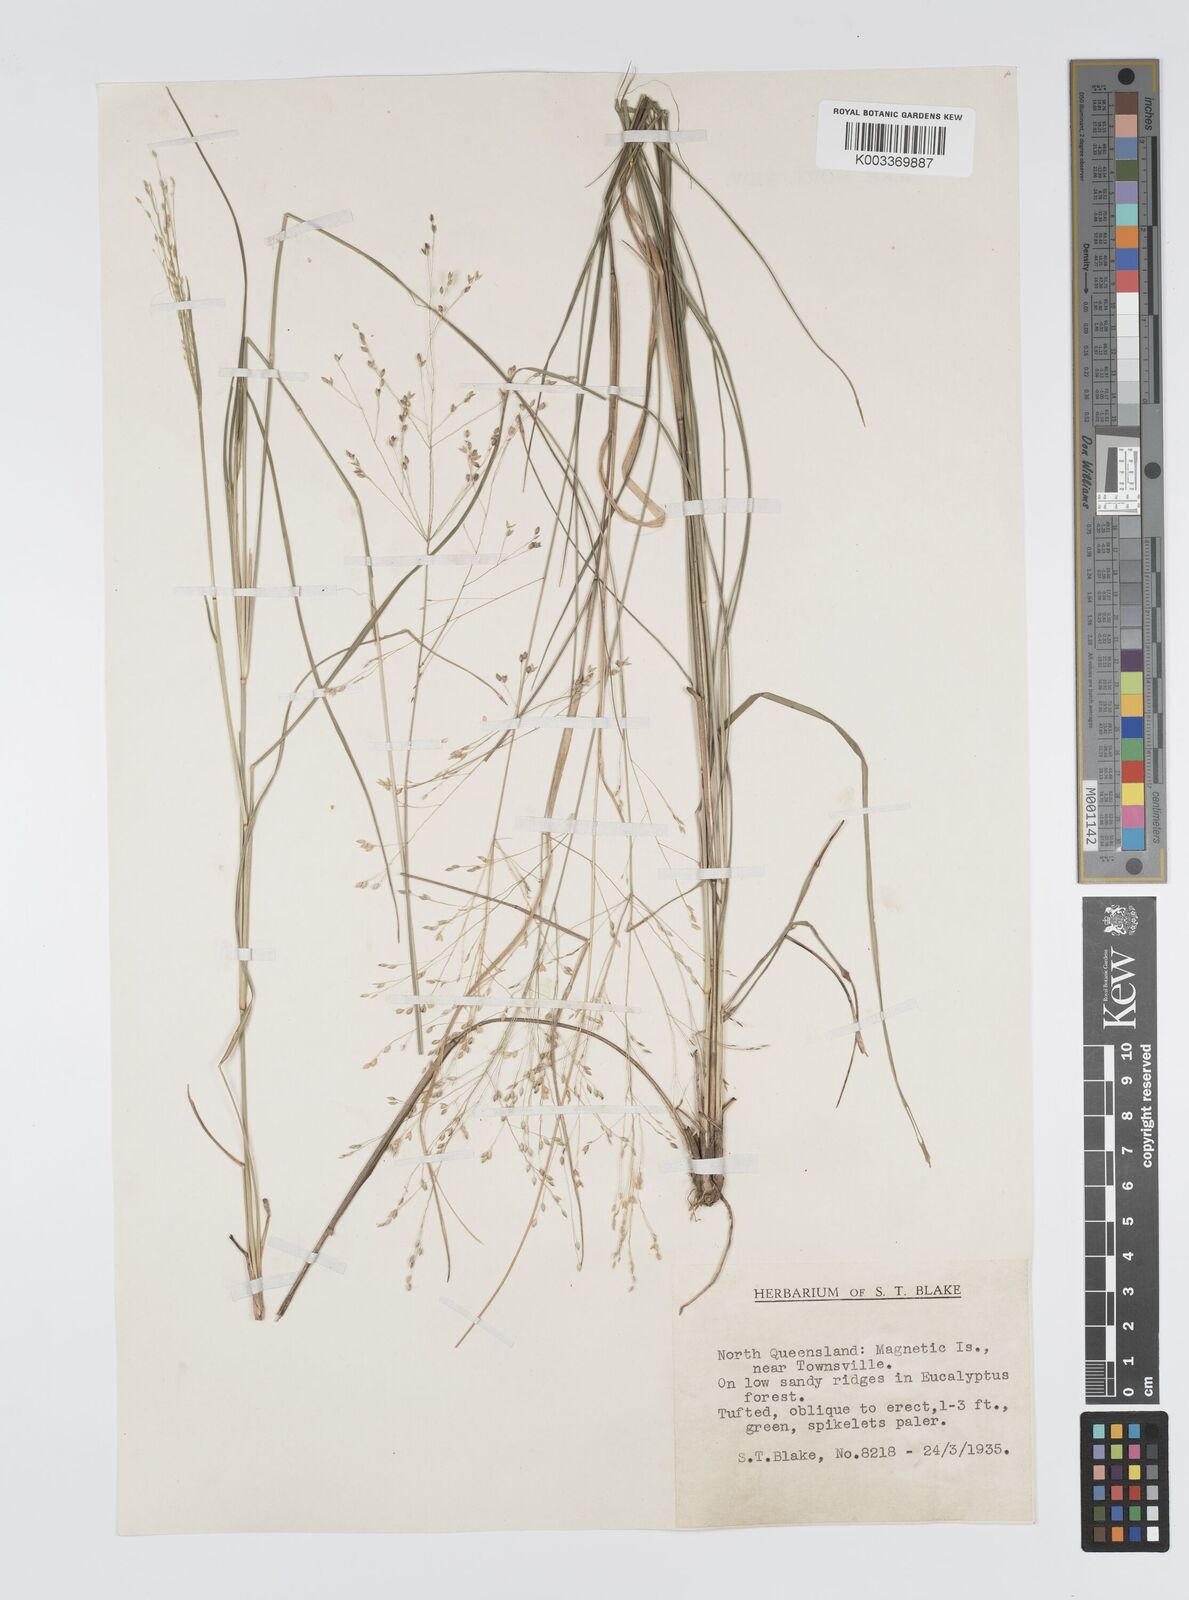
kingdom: Plantae
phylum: Tracheophyta
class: Liliopsida
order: Poales
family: Poaceae
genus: Panicum
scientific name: Panicum mitchellii
